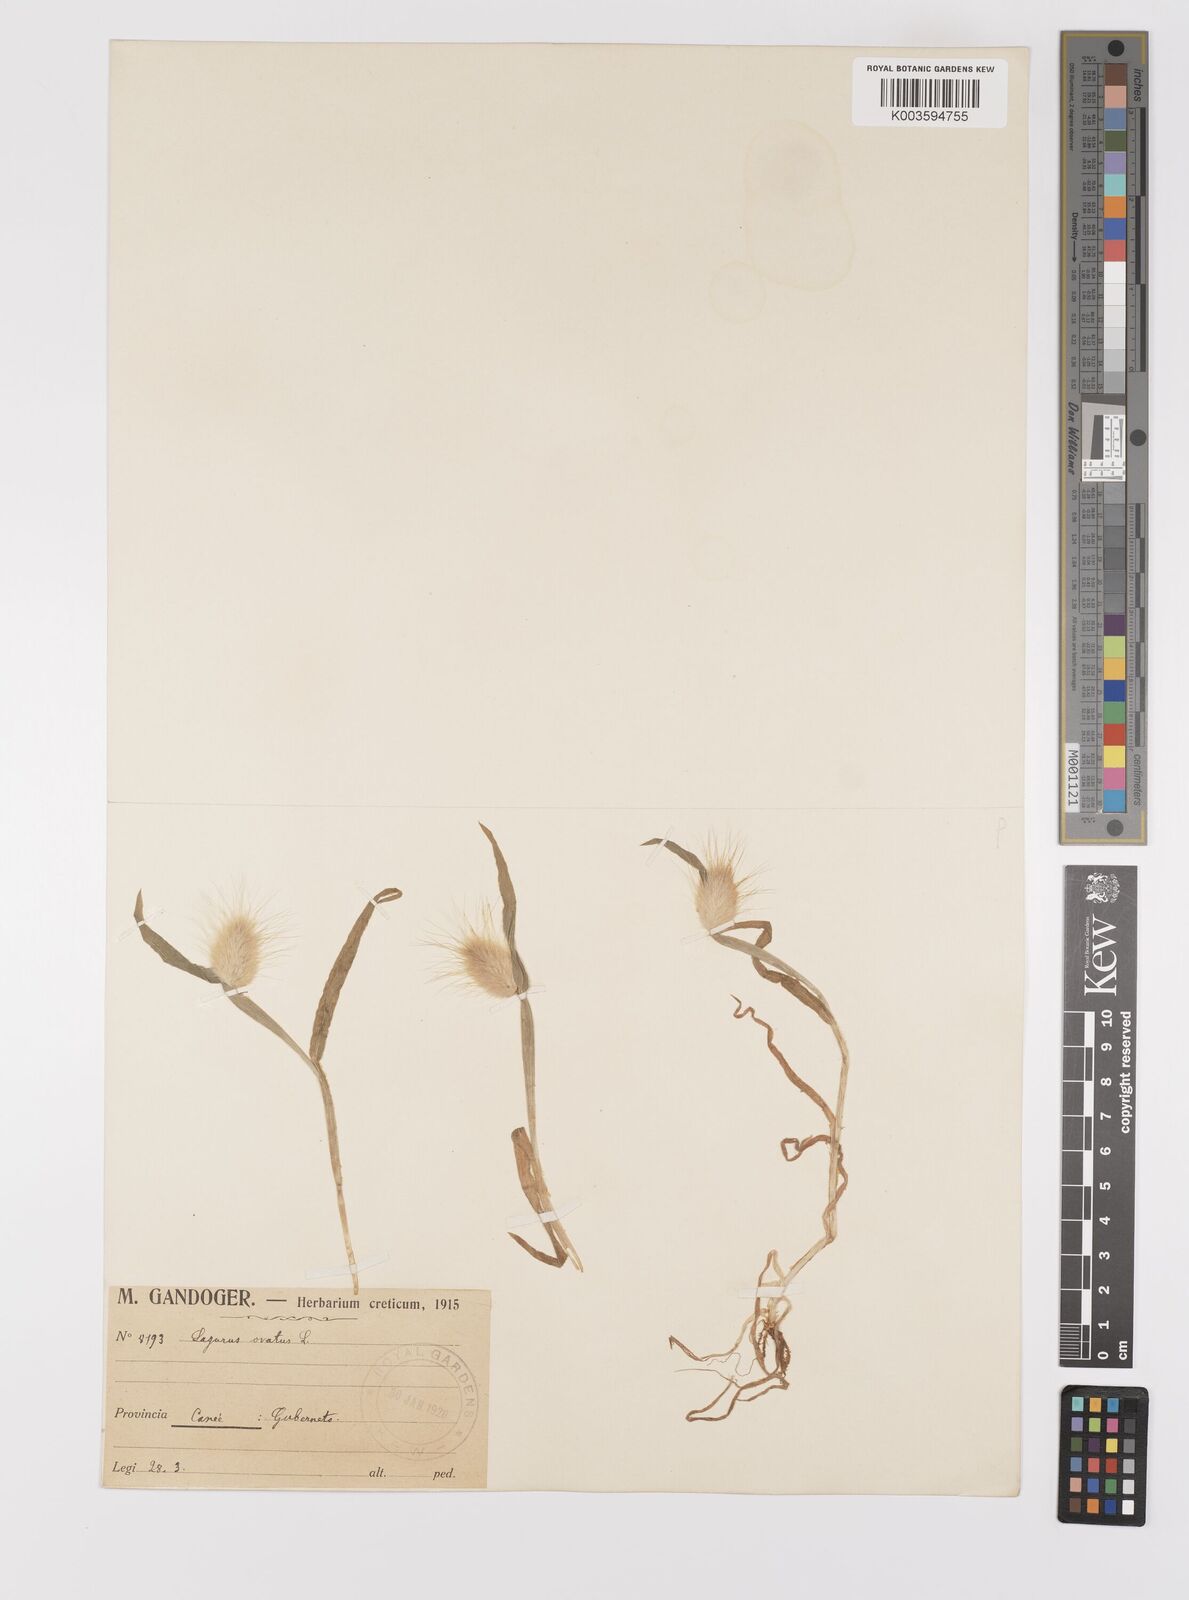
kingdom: Plantae
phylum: Tracheophyta
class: Liliopsida
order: Poales
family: Poaceae
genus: Lagurus
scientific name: Lagurus ovatus
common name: Hare's-tail
